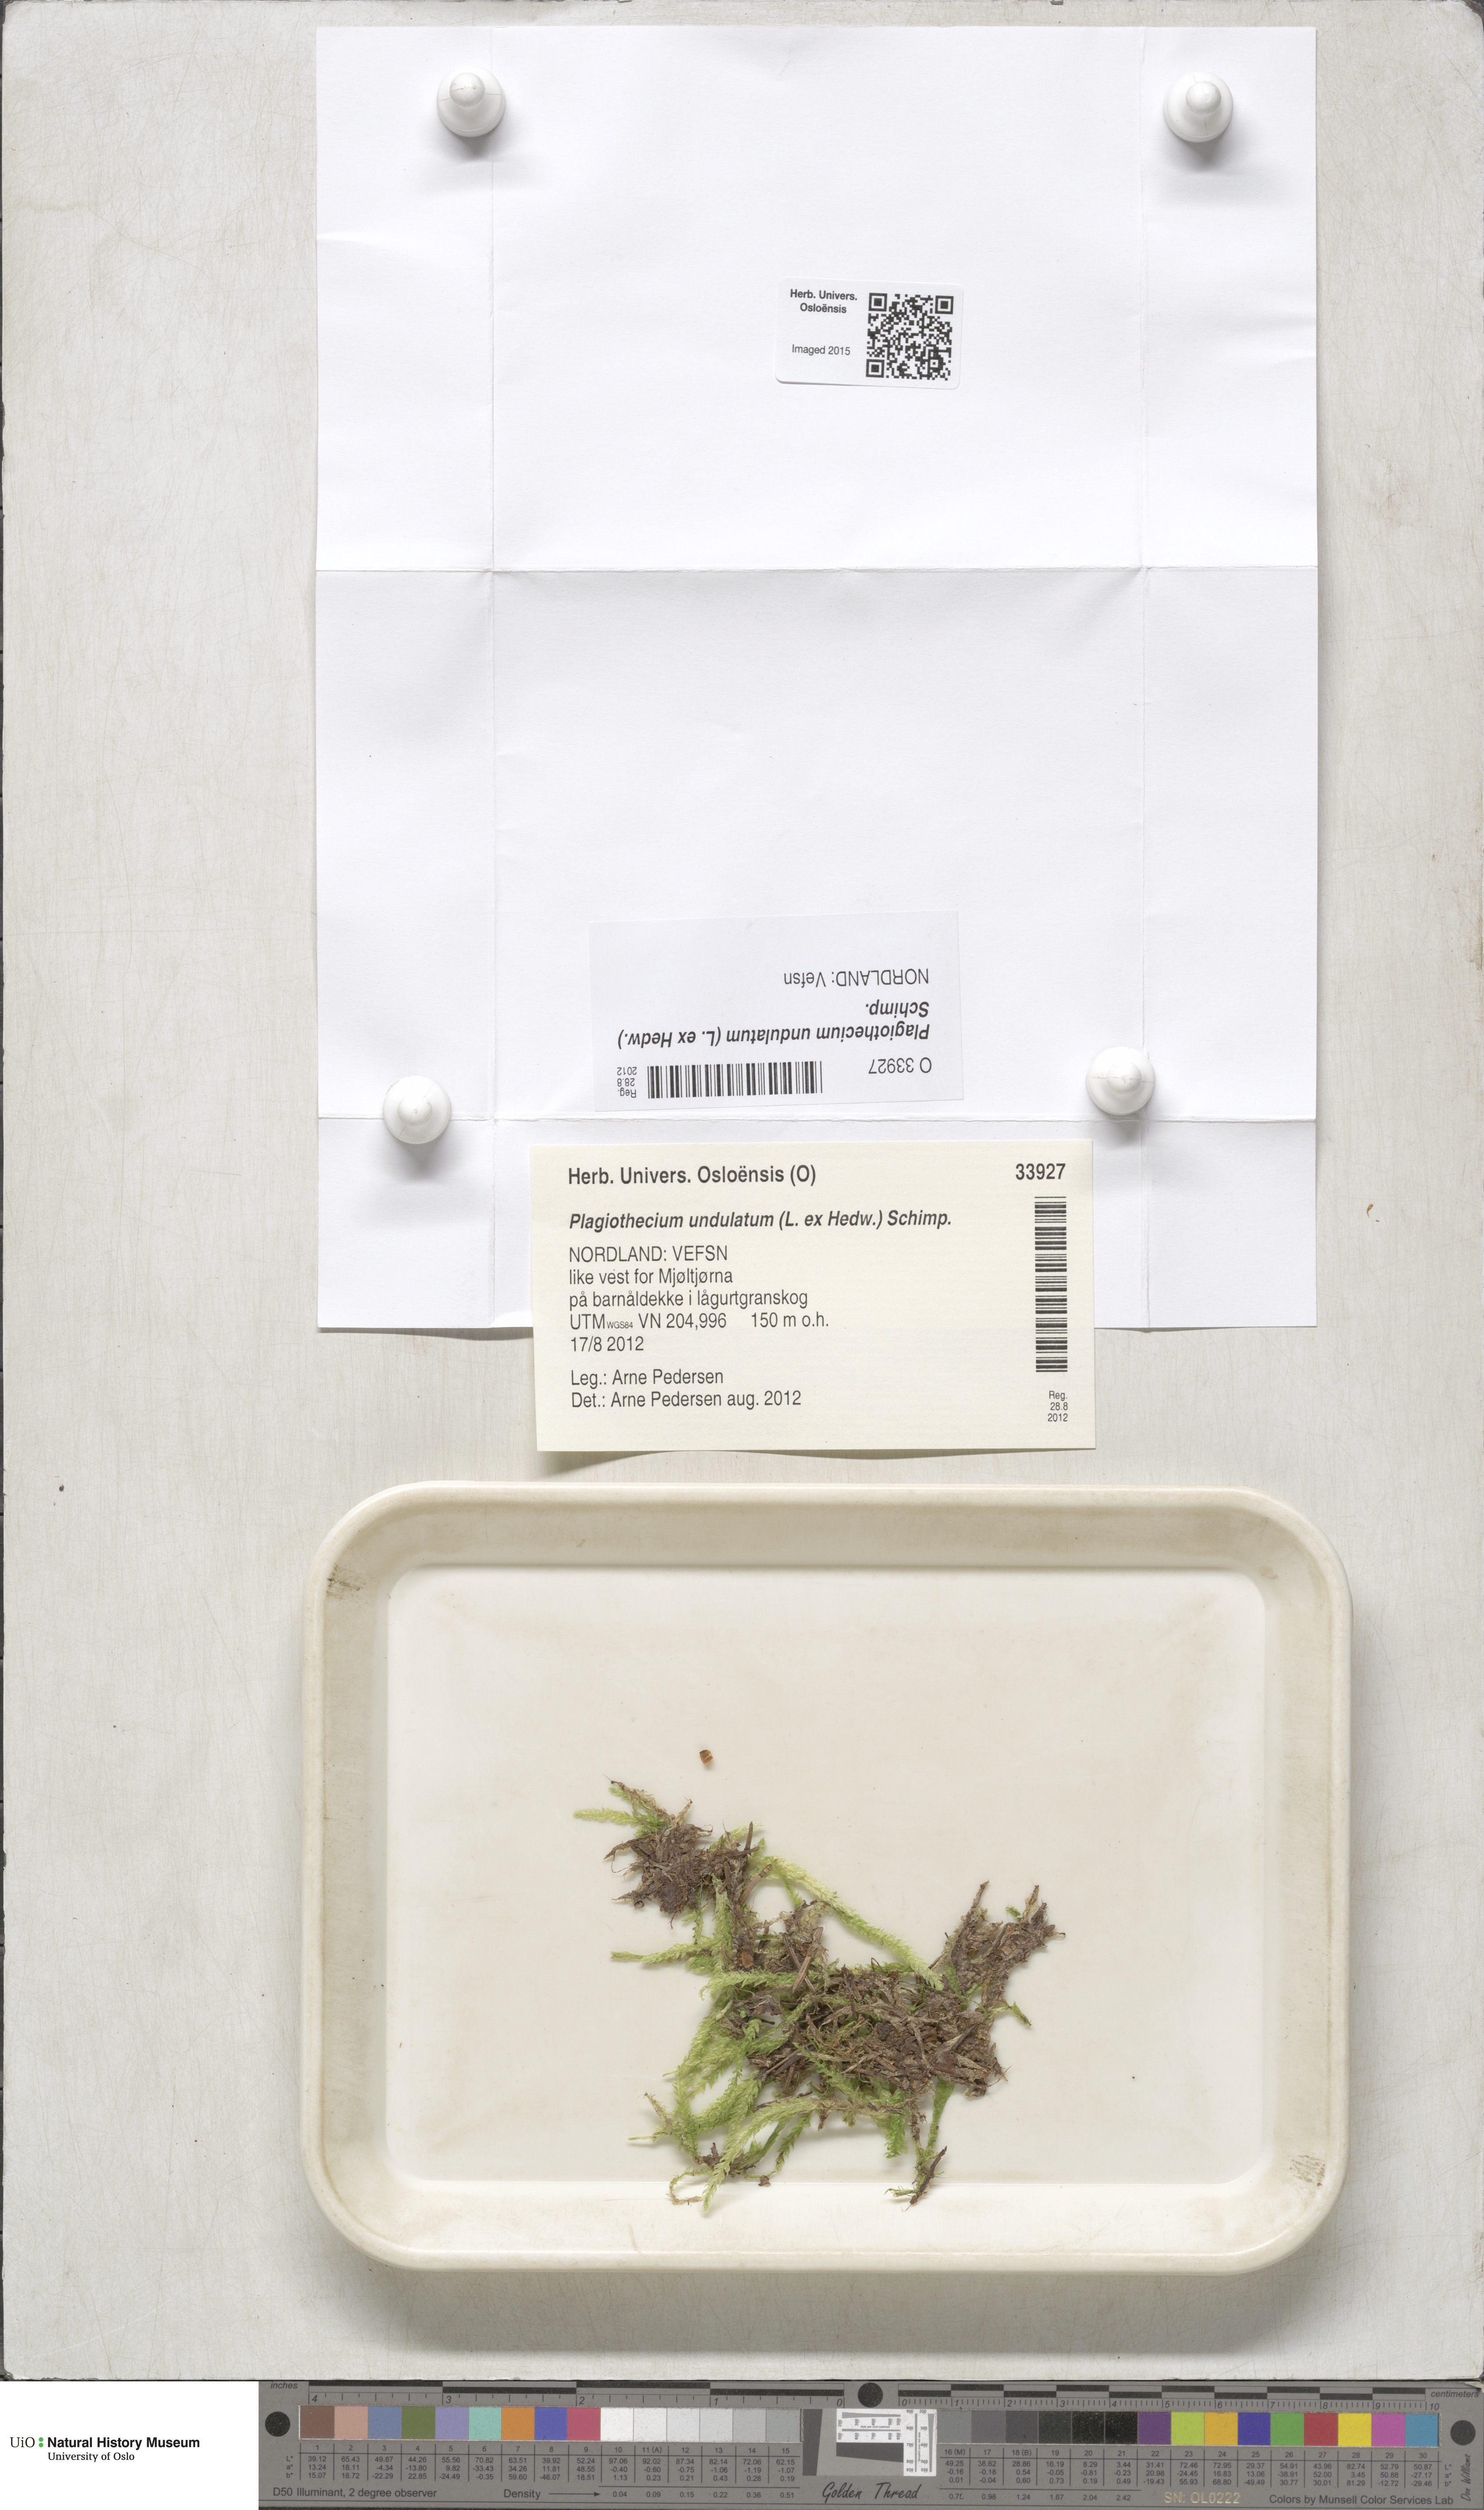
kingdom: Plantae
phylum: Bryophyta
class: Bryopsida
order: Hypnales
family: Plagiotheciaceae
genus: Plagiothecium
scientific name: Plagiothecium undulatum
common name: Waved silk-moss
